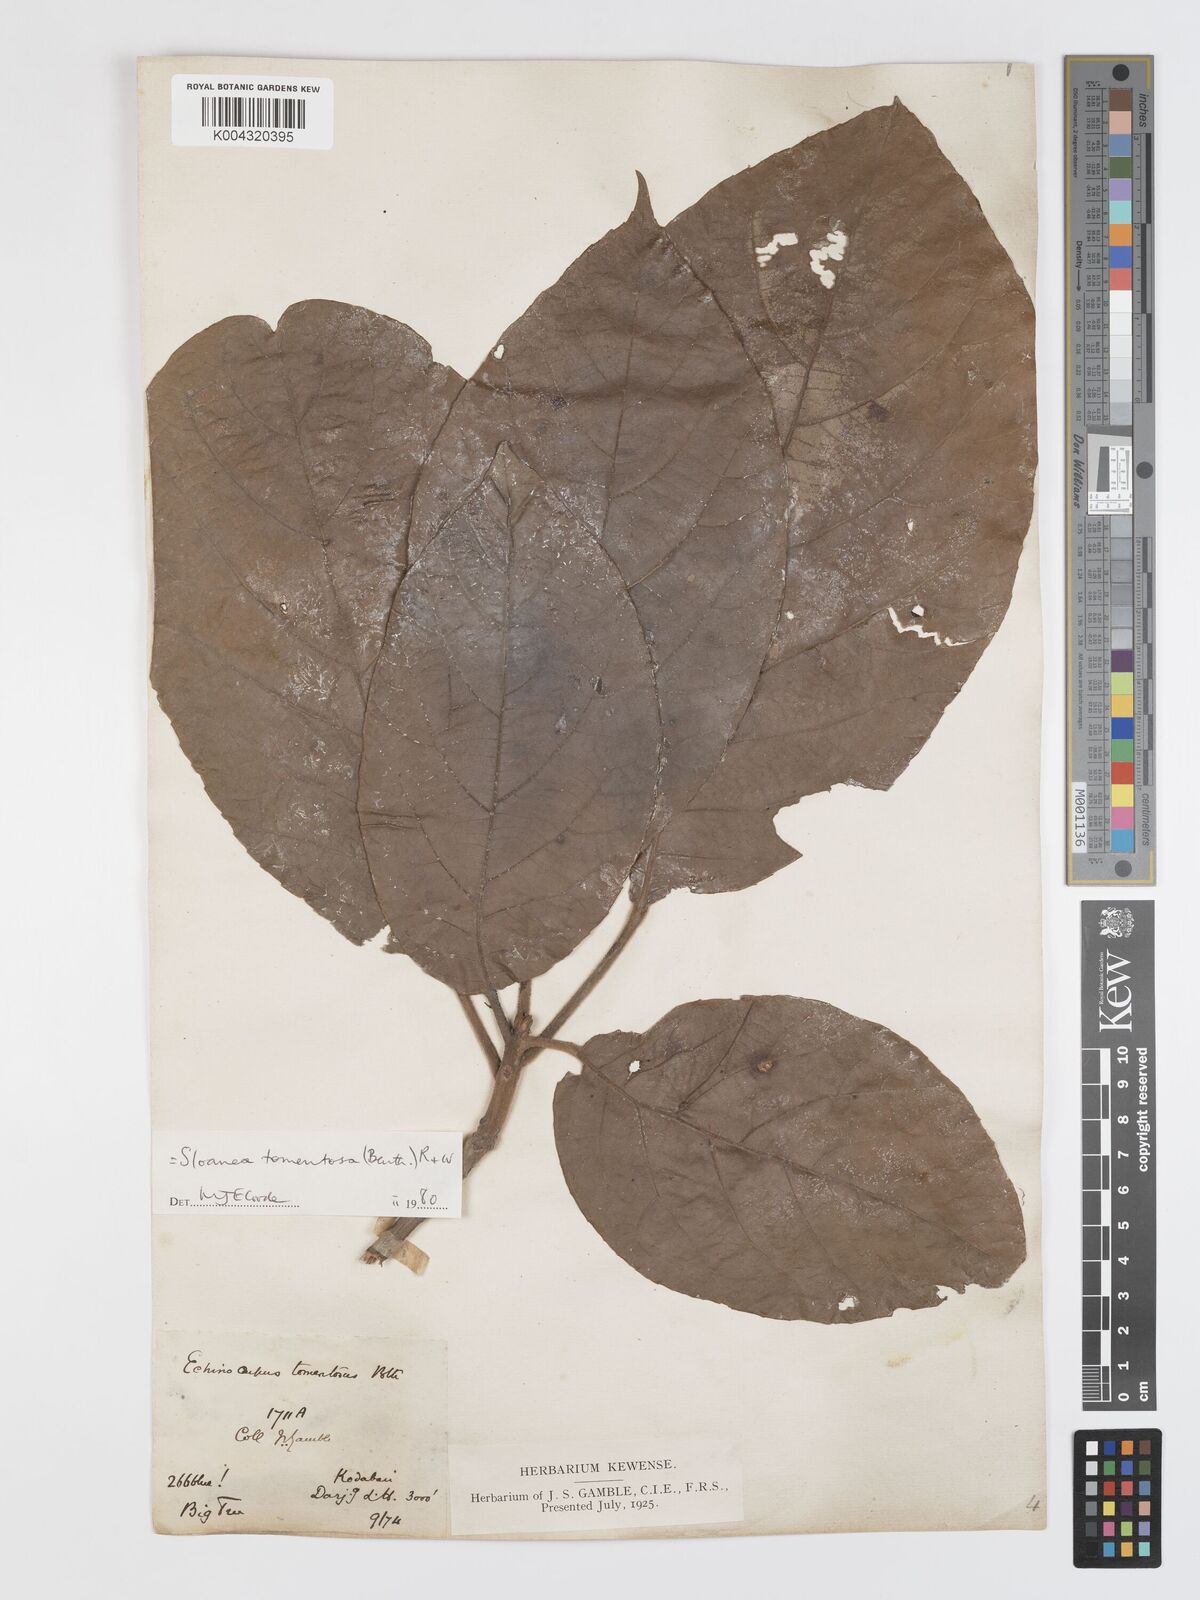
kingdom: Plantae
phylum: Tracheophyta
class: Magnoliopsida
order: Oxalidales
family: Elaeocarpaceae
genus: Sloanea
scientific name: Sloanea tomentosa
